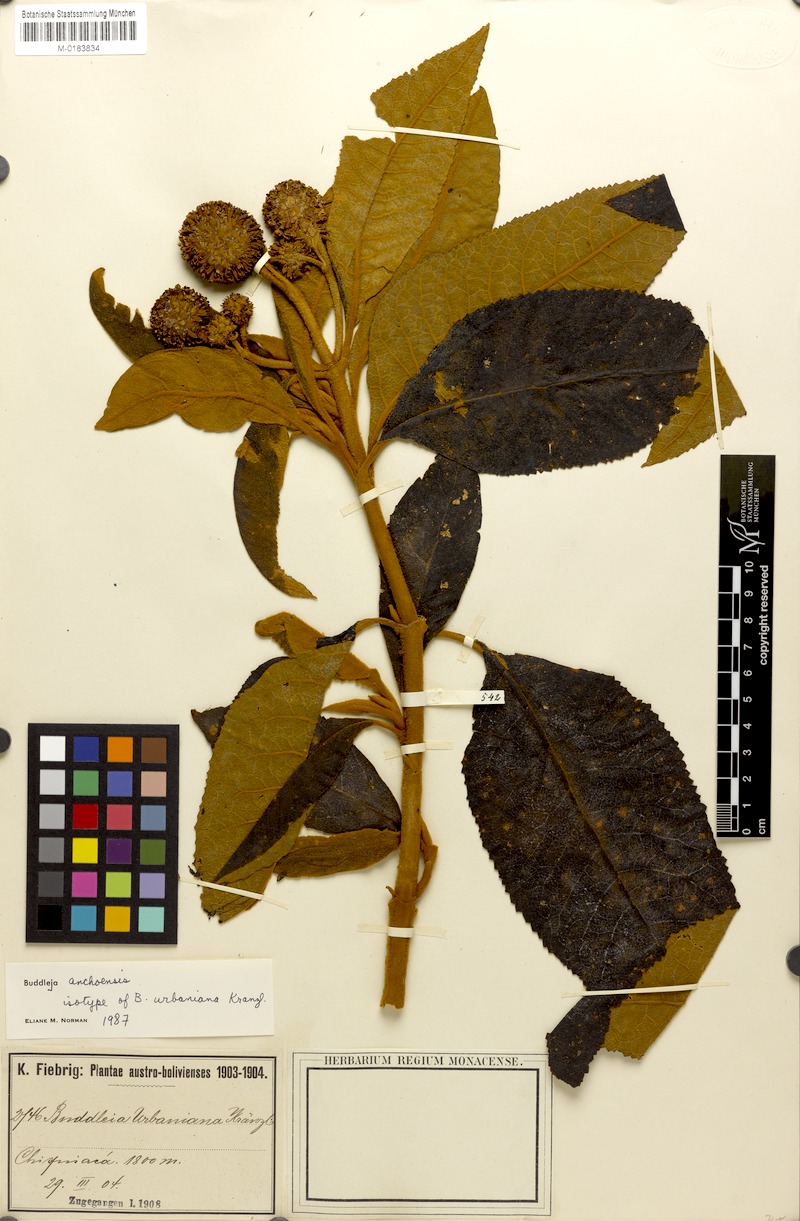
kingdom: Plantae
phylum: Tracheophyta
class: Magnoliopsida
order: Lamiales
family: Scrophulariaceae
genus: Buddleja
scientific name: Buddleja anchoensis
